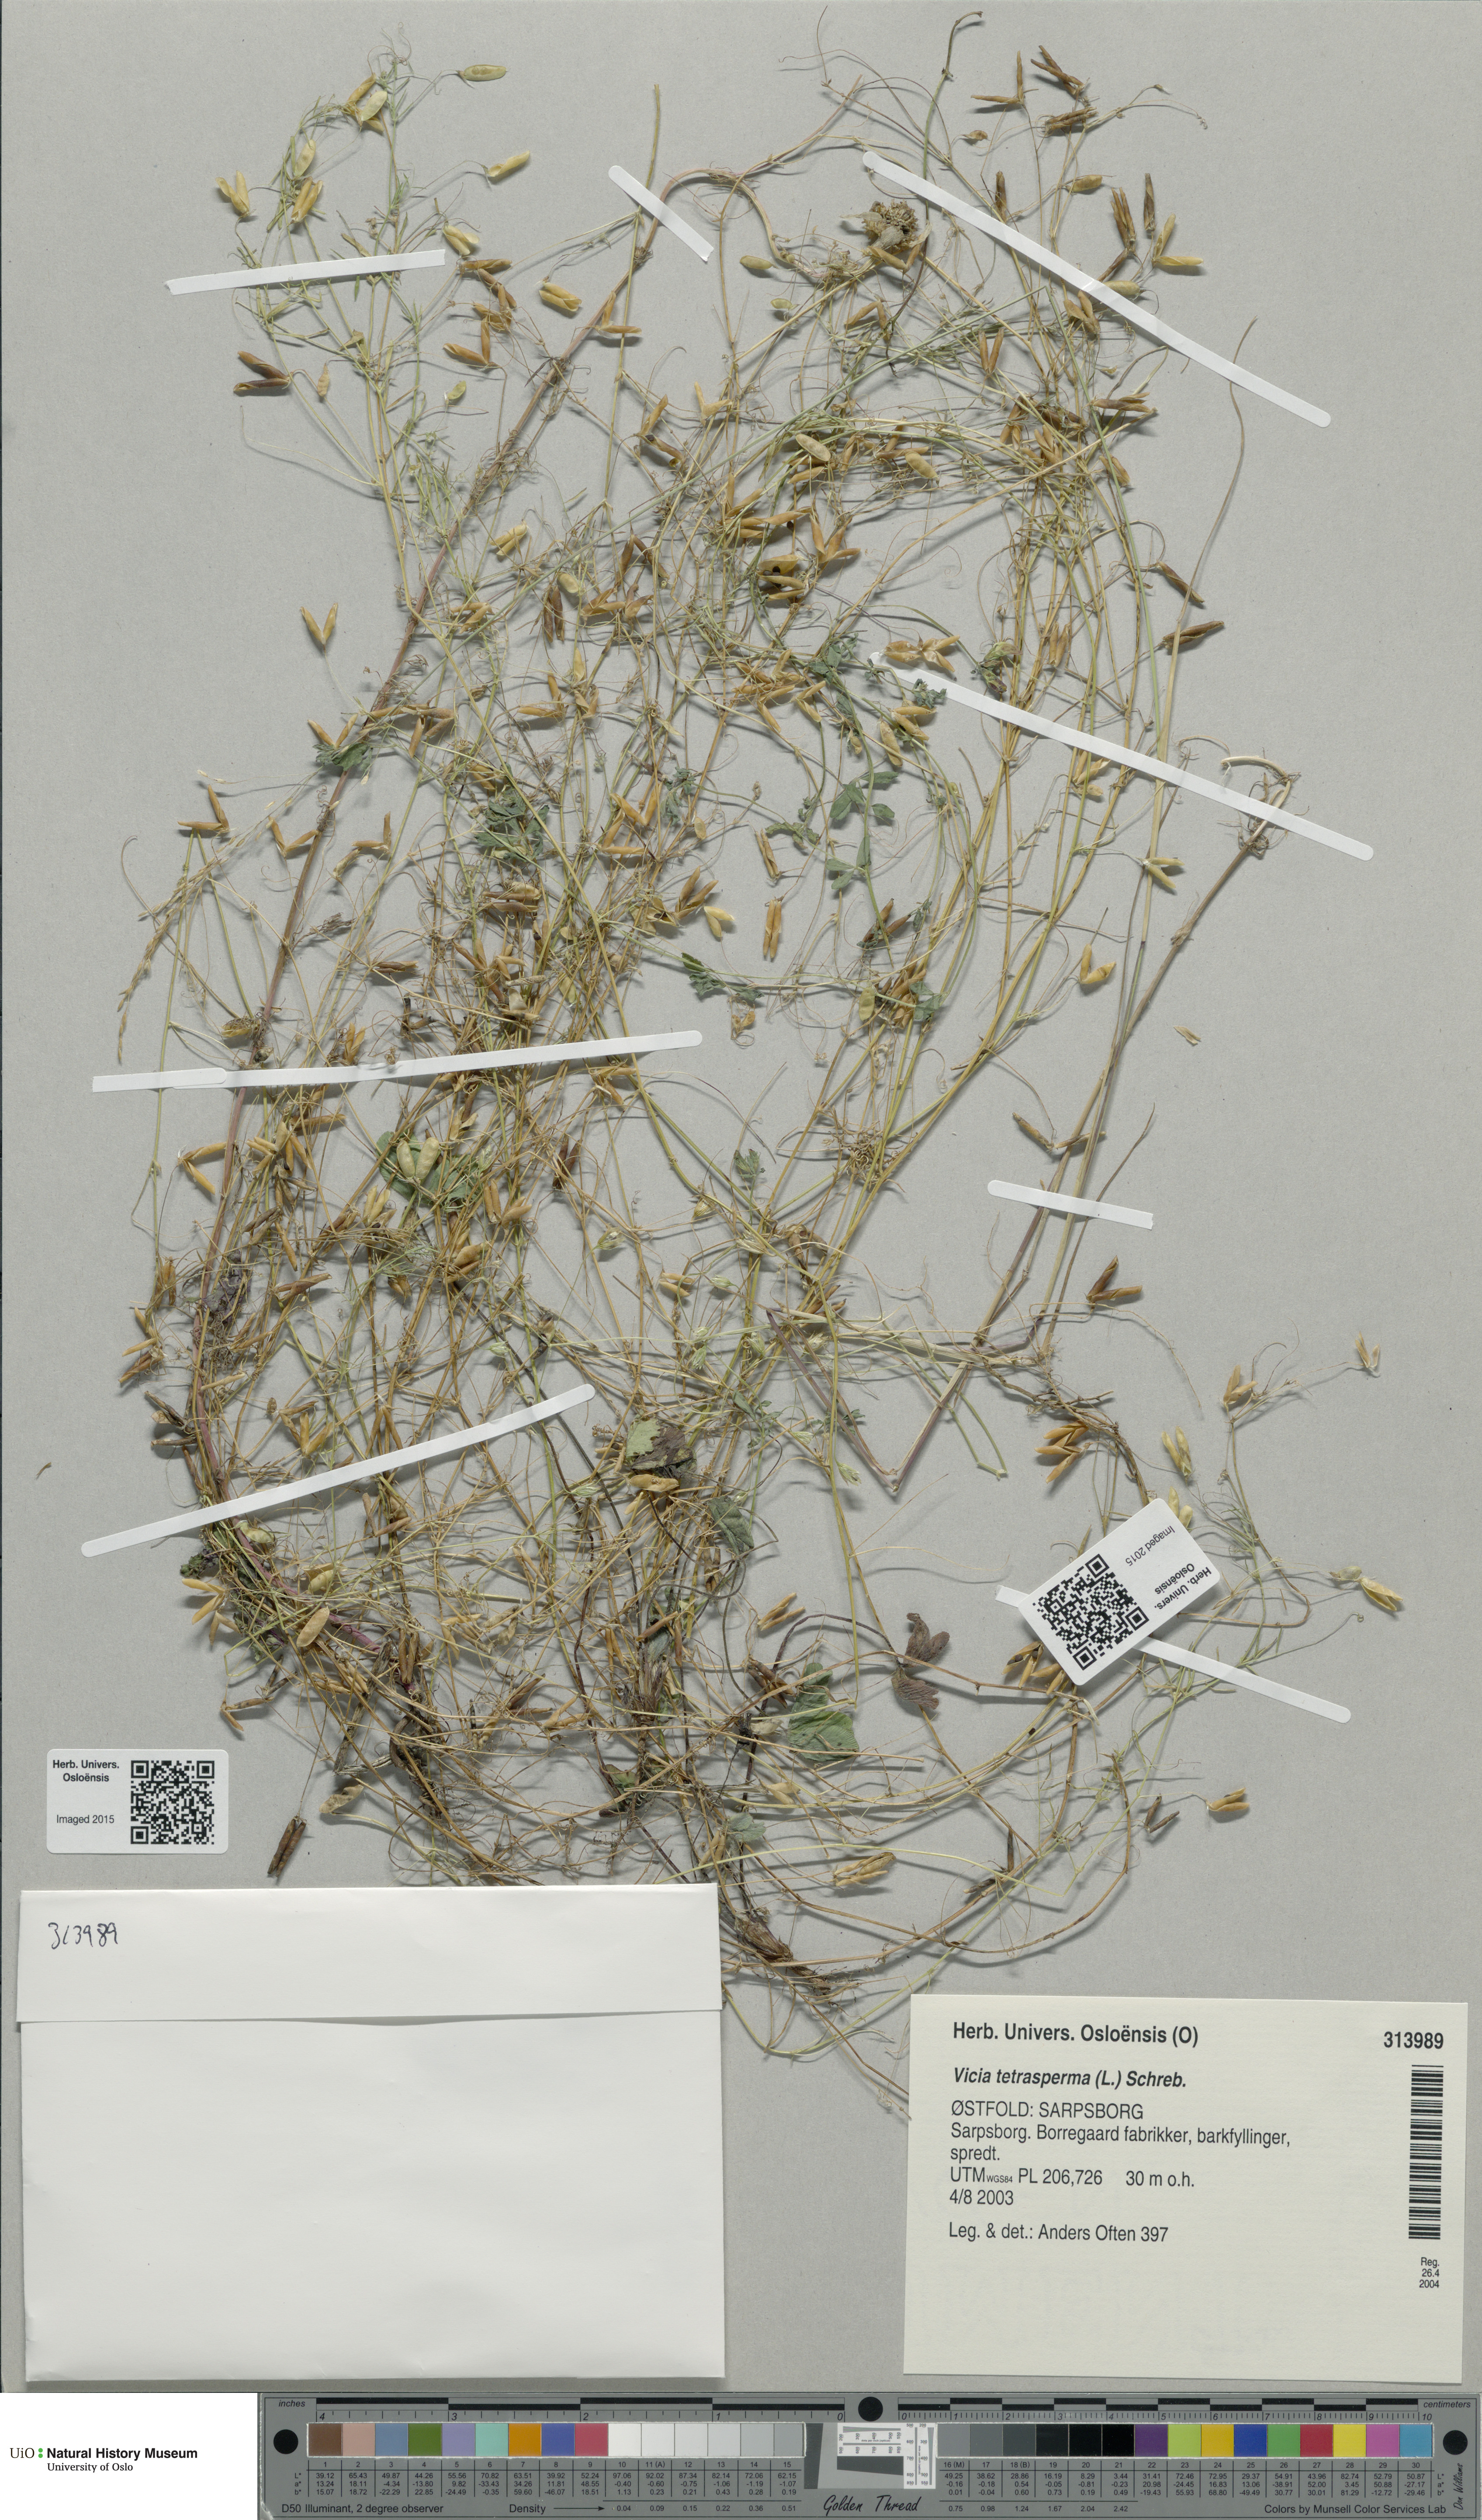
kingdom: Plantae
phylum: Tracheophyta
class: Magnoliopsida
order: Fabales
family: Fabaceae
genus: Vicia
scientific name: Vicia tetrasperma
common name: Smooth tare
